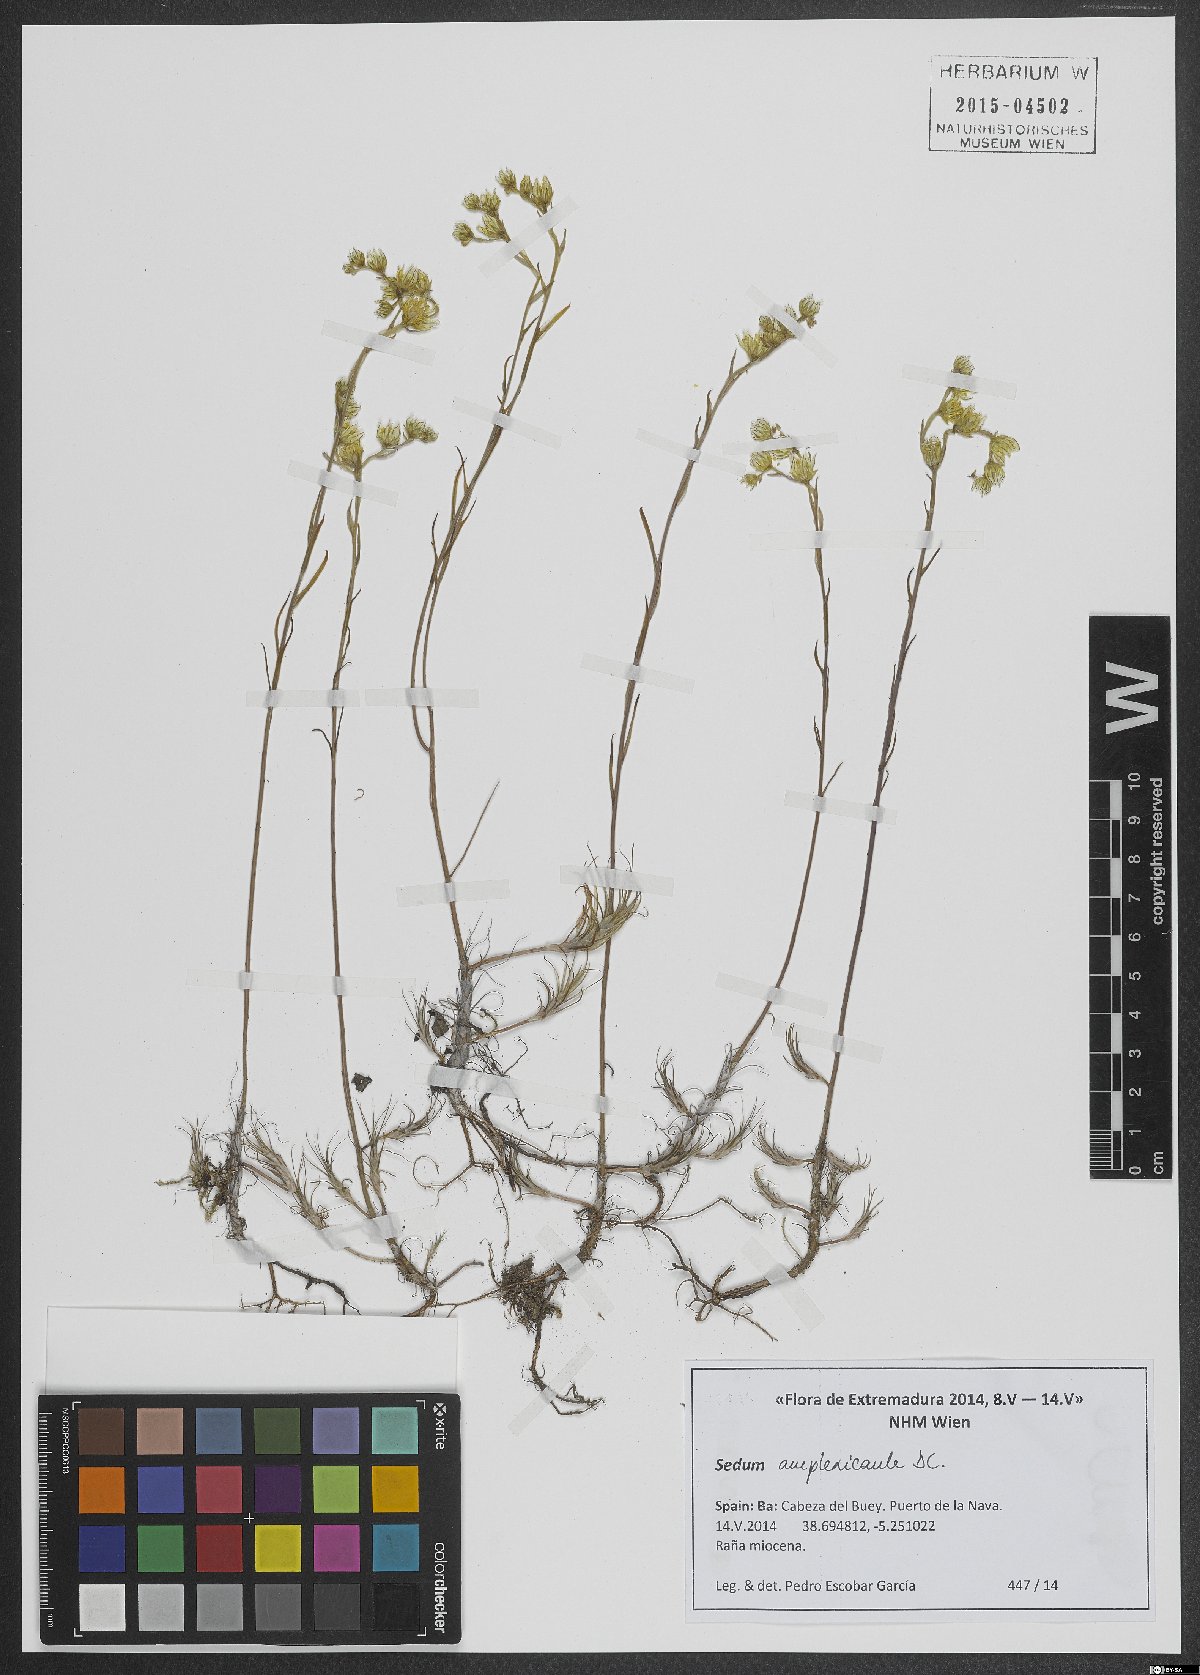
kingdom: Plantae
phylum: Tracheophyta
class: Magnoliopsida
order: Saxifragales
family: Crassulaceae
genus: Petrosedum
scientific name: Petrosedum amplexicaule
